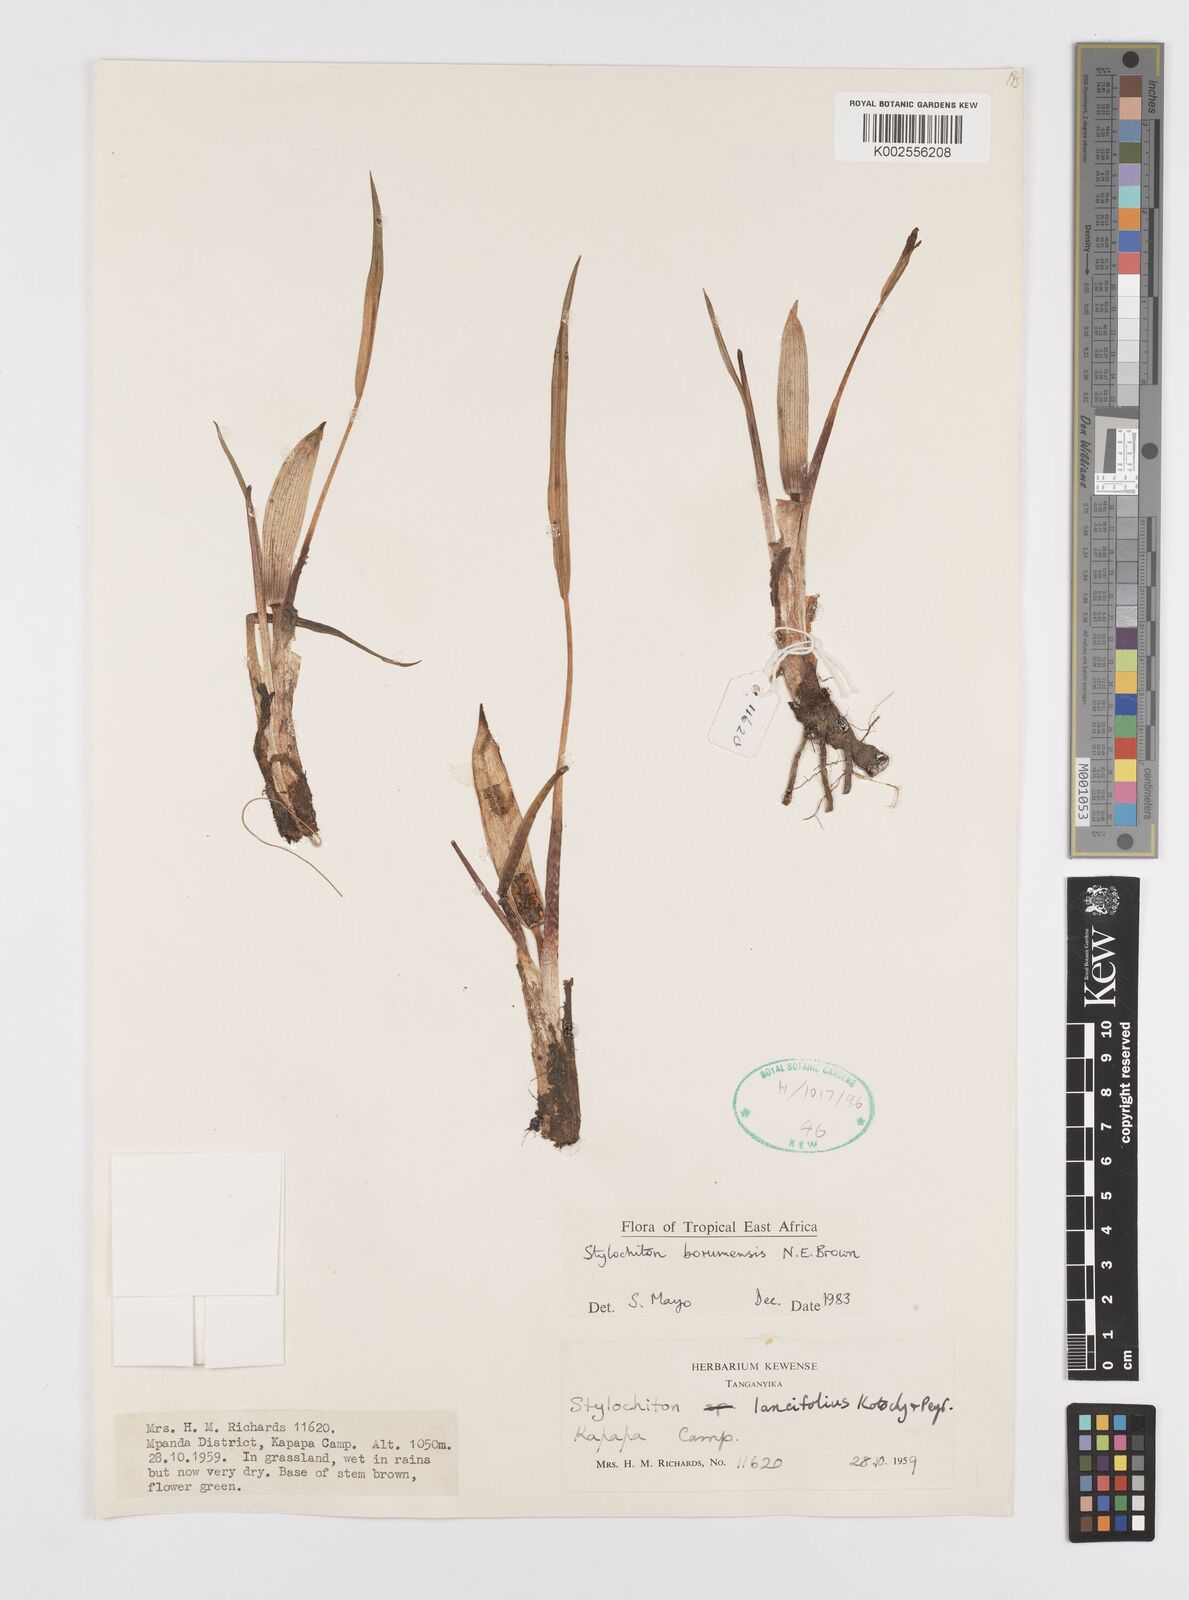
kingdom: Plantae
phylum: Tracheophyta
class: Liliopsida
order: Alismatales
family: Araceae
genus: Stylochaeton
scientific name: Stylochaeton borumense
